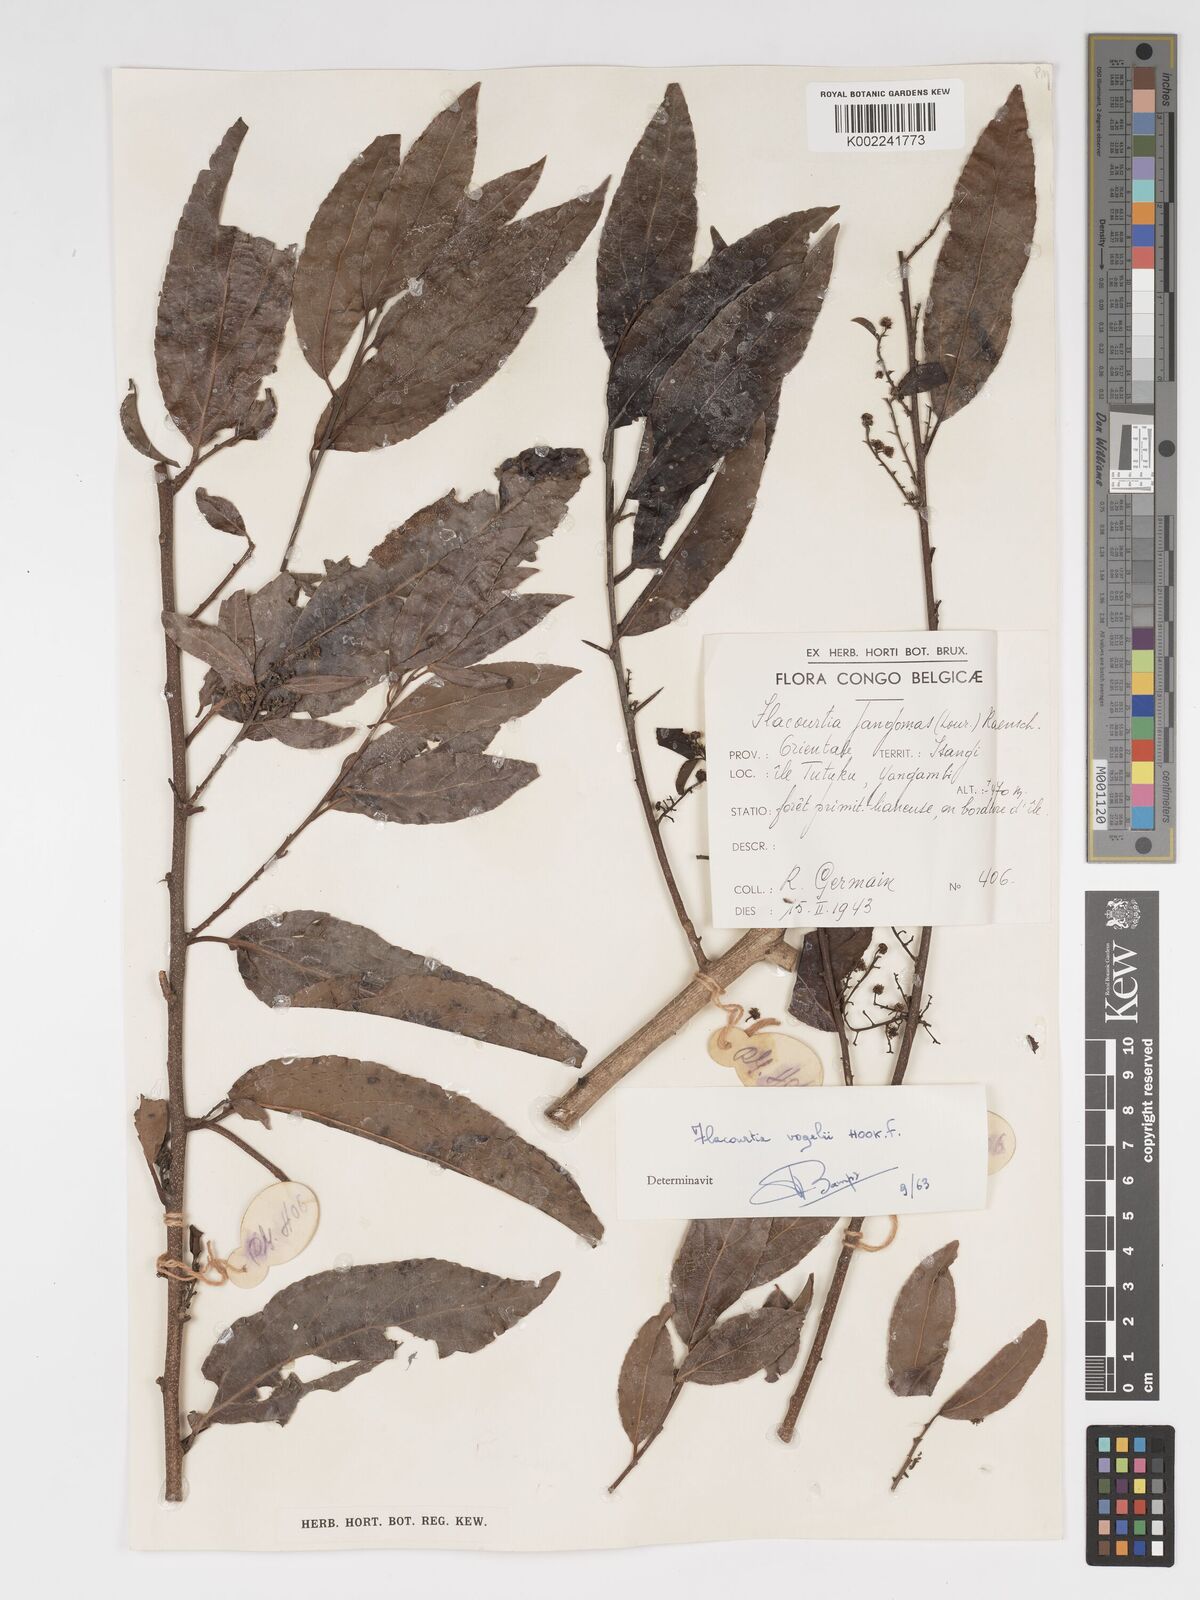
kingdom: Plantae
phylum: Tracheophyta
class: Magnoliopsida
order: Malpighiales
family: Salicaceae
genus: Flacourtia
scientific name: Flacourtia vogelii
